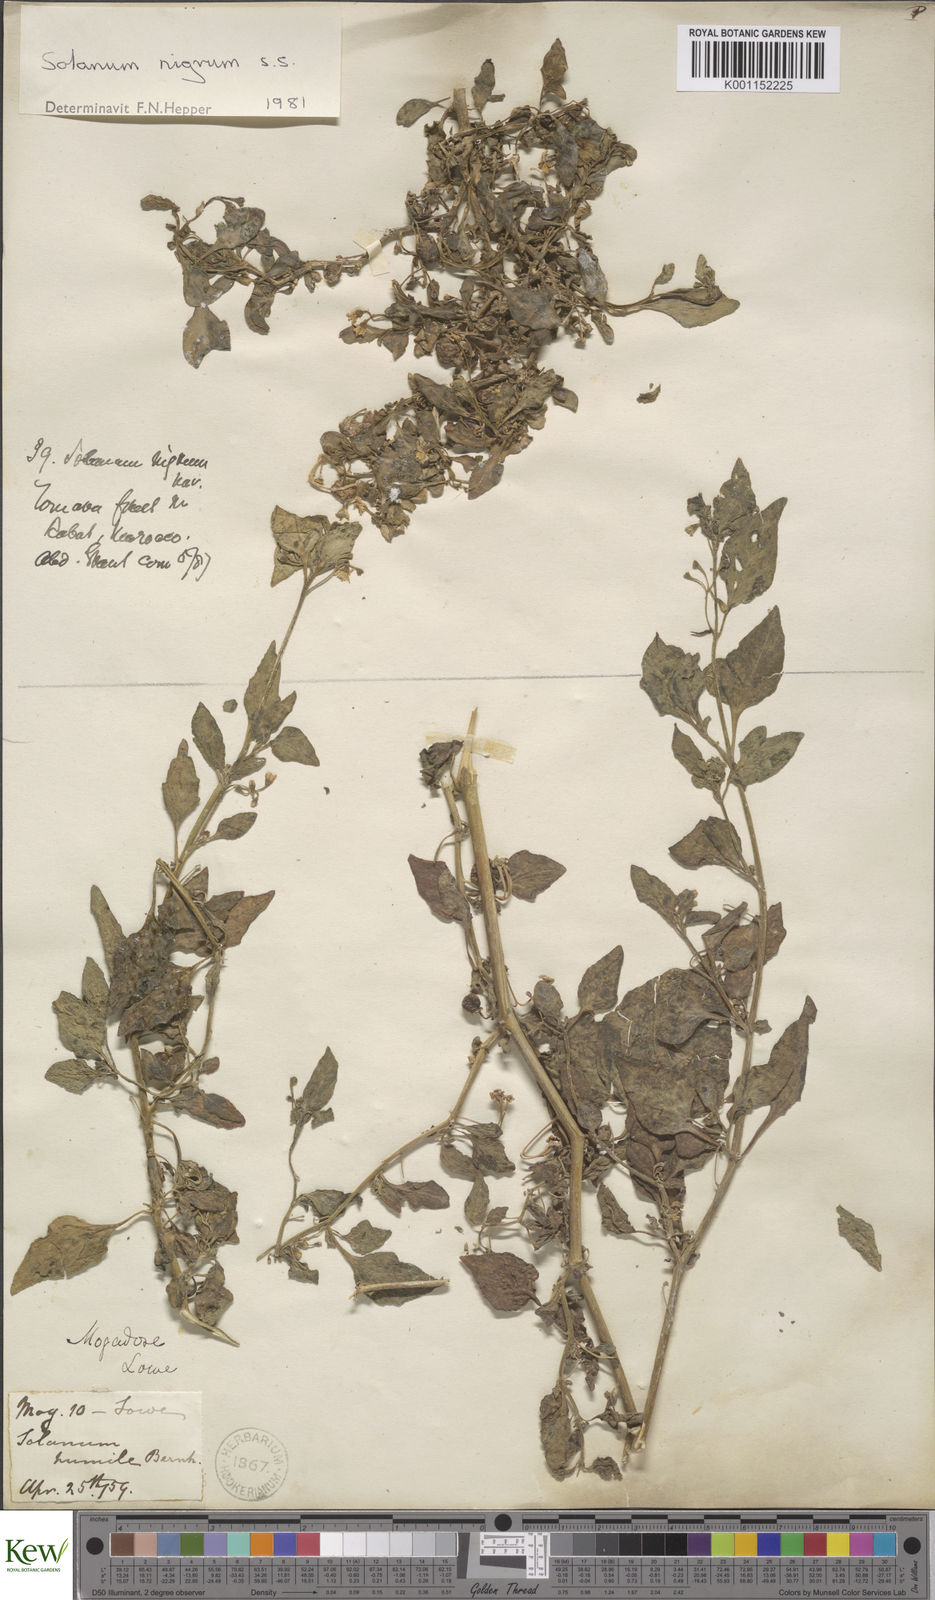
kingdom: Plantae
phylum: Tracheophyta
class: Magnoliopsida
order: Solanales
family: Solanaceae
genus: Solanum
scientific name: Solanum nigrum
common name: Black nightshade
